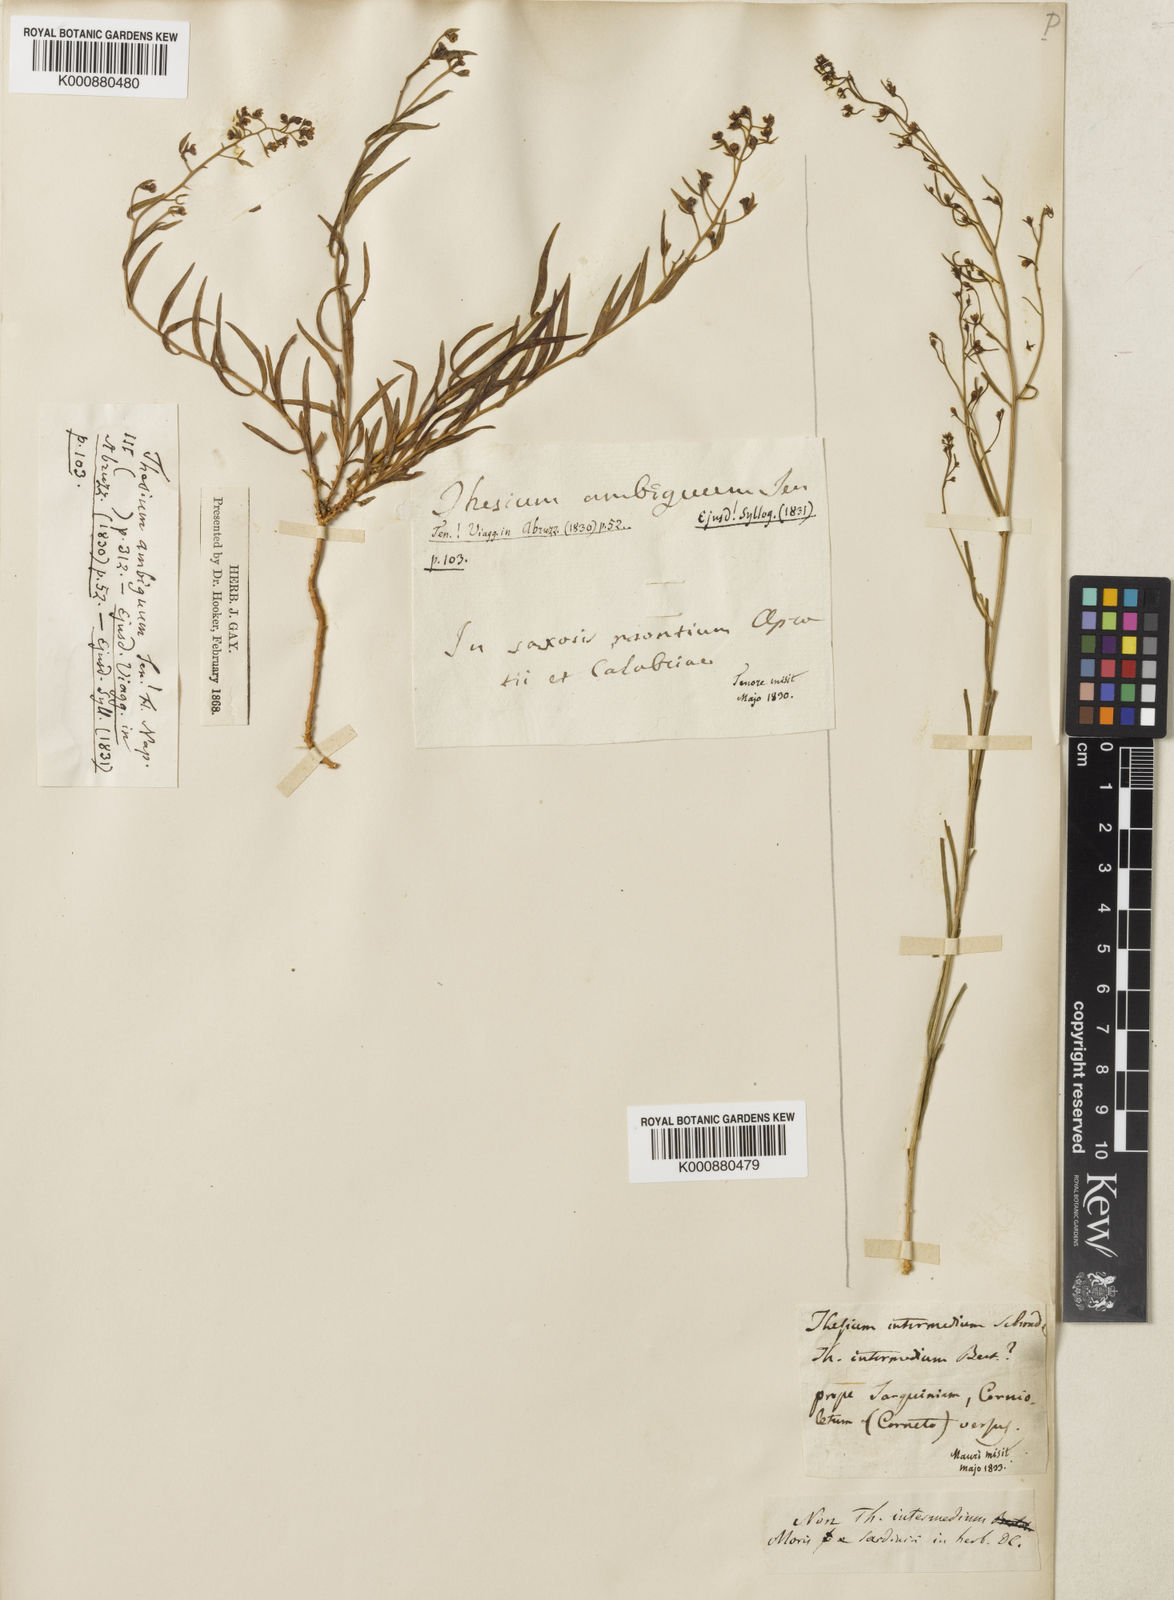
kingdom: Plantae
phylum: Tracheophyta
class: Magnoliopsida
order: Santalales
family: Thesiaceae
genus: Thesium
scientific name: Thesium linophyllon
